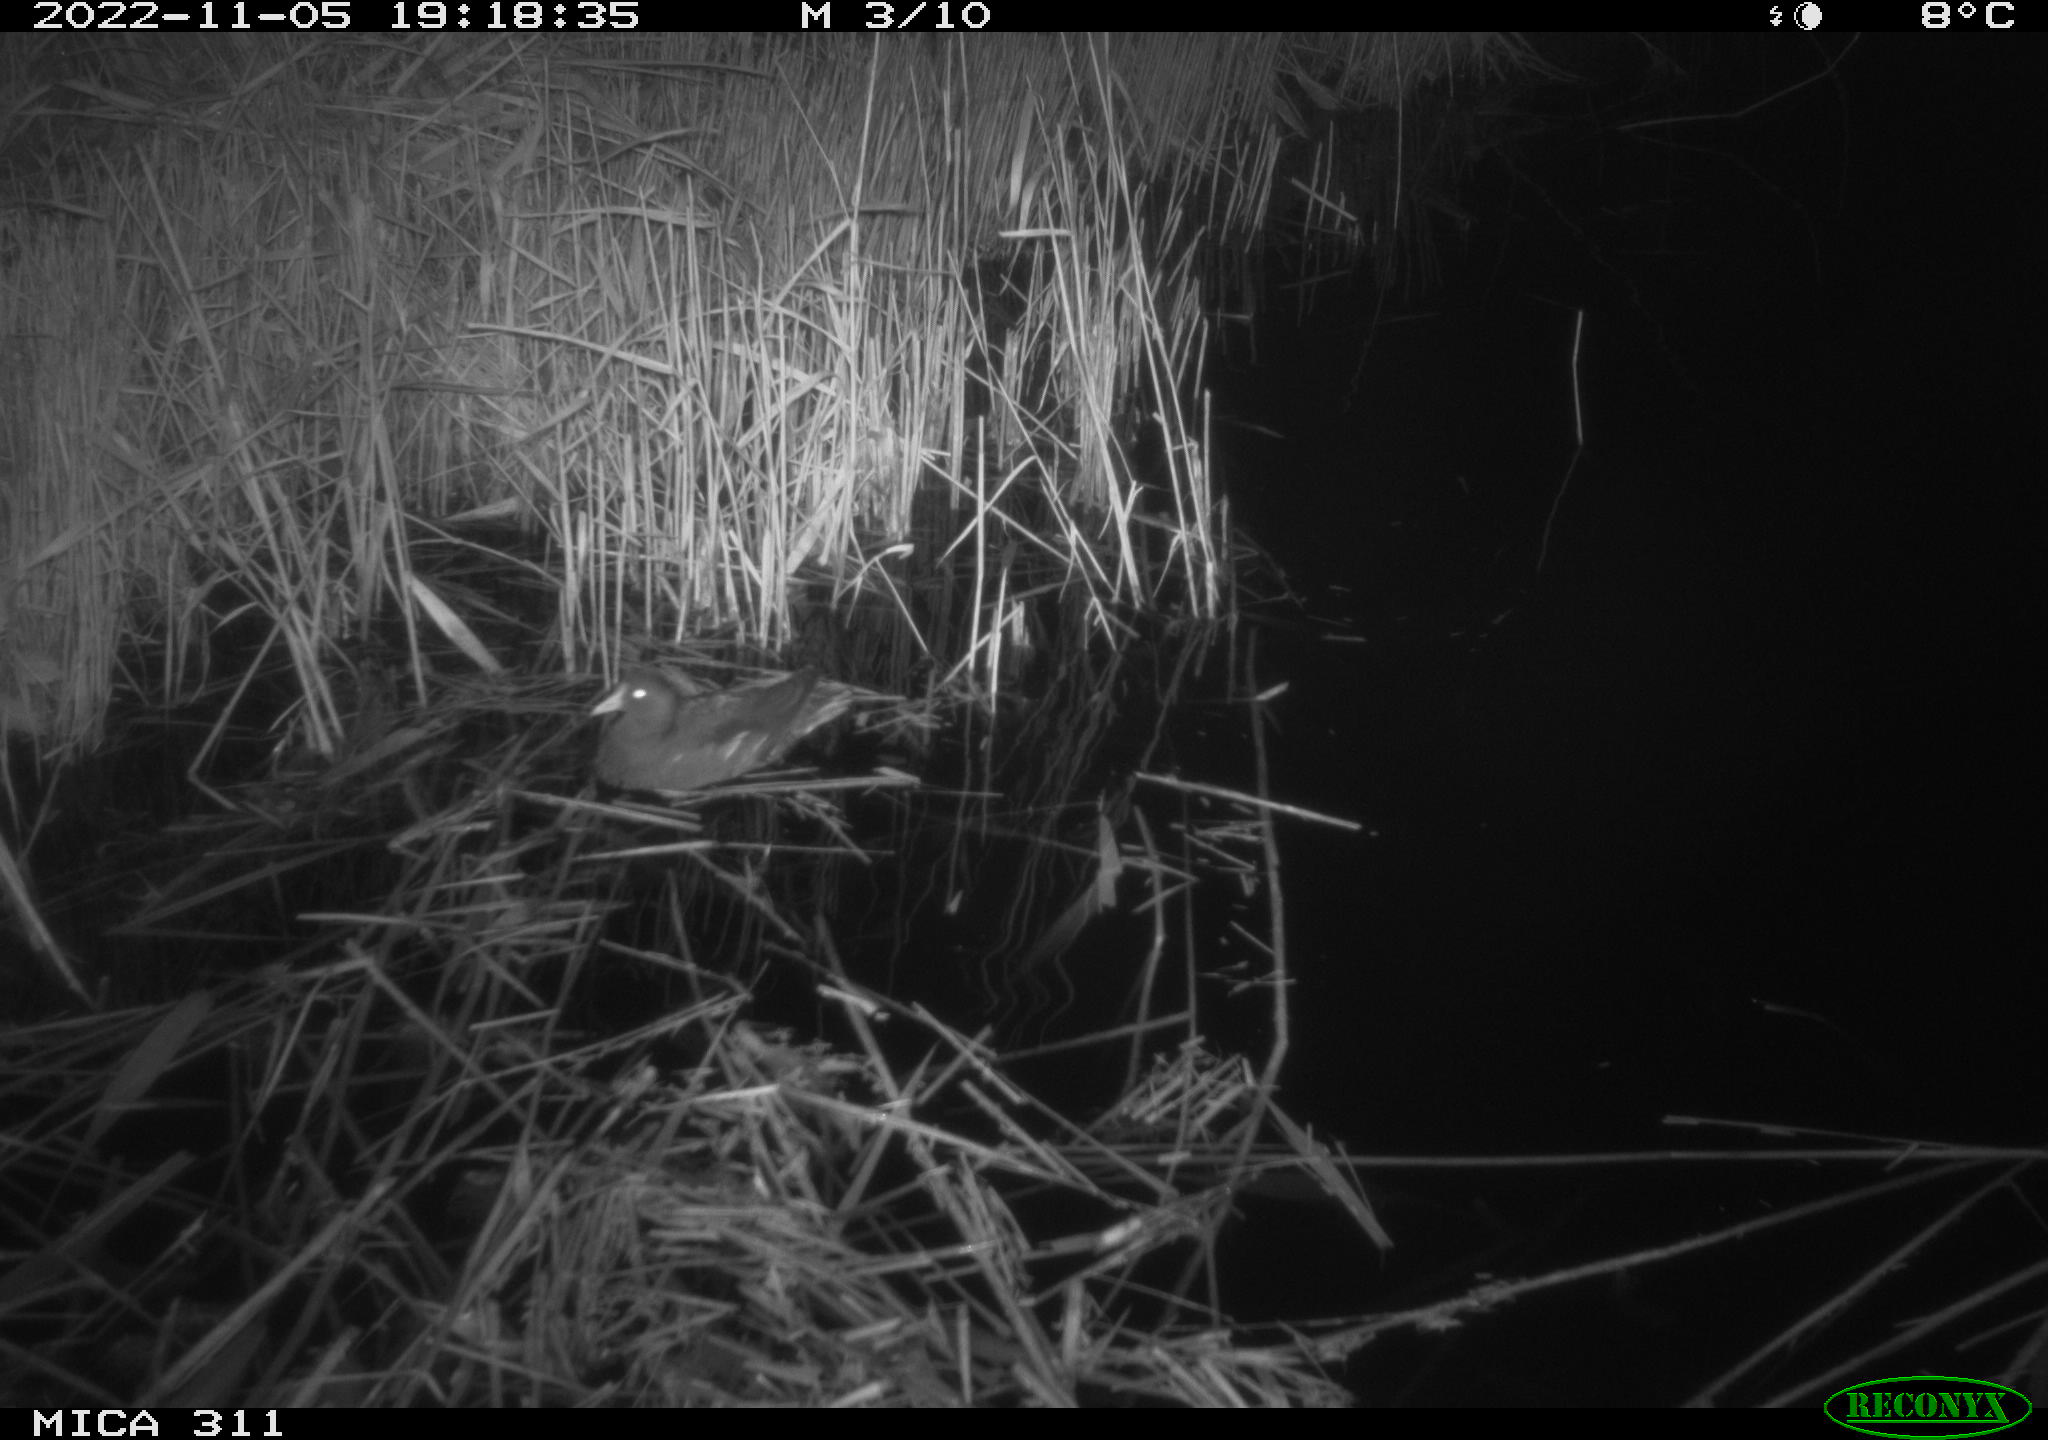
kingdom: Animalia
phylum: Chordata
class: Aves
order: Gruiformes
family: Rallidae
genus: Gallinula
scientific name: Gallinula chloropus
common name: Common moorhen
